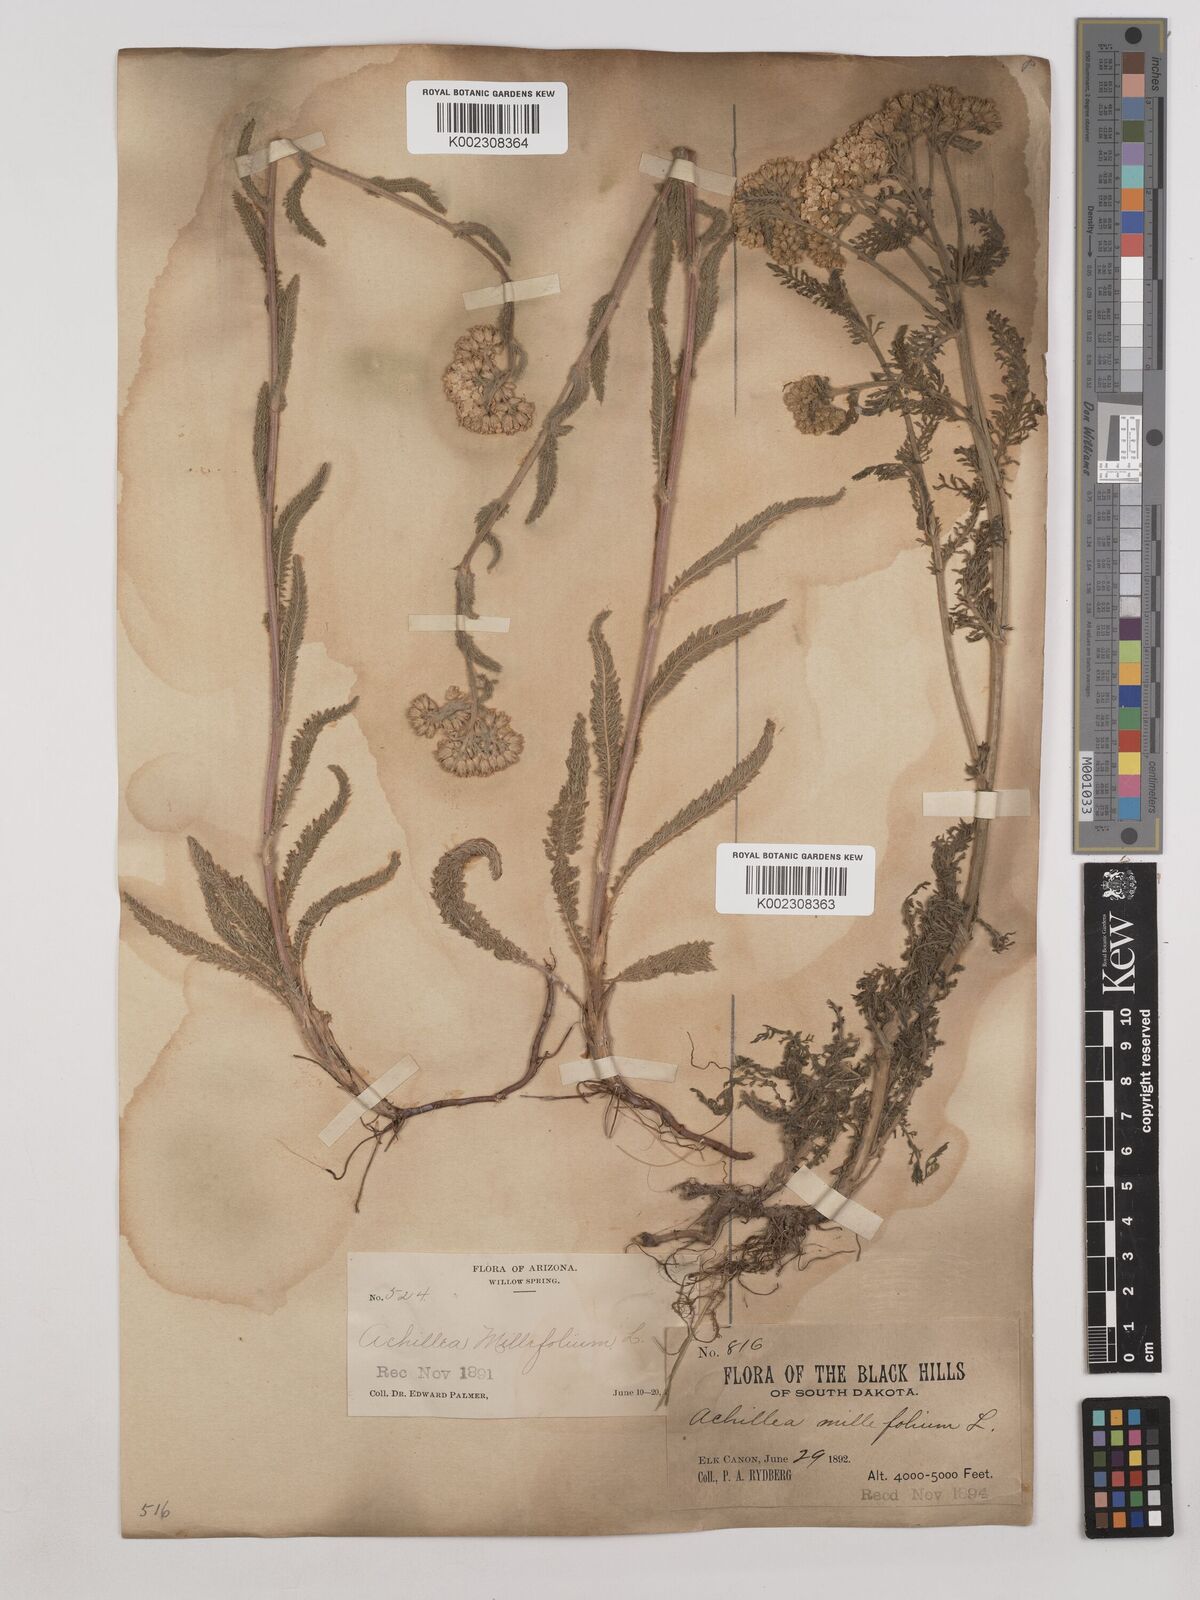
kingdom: Plantae
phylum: Tracheophyta
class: Magnoliopsida
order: Asterales
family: Asteraceae
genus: Achillea
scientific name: Achillea millefolium
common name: Yarrow
